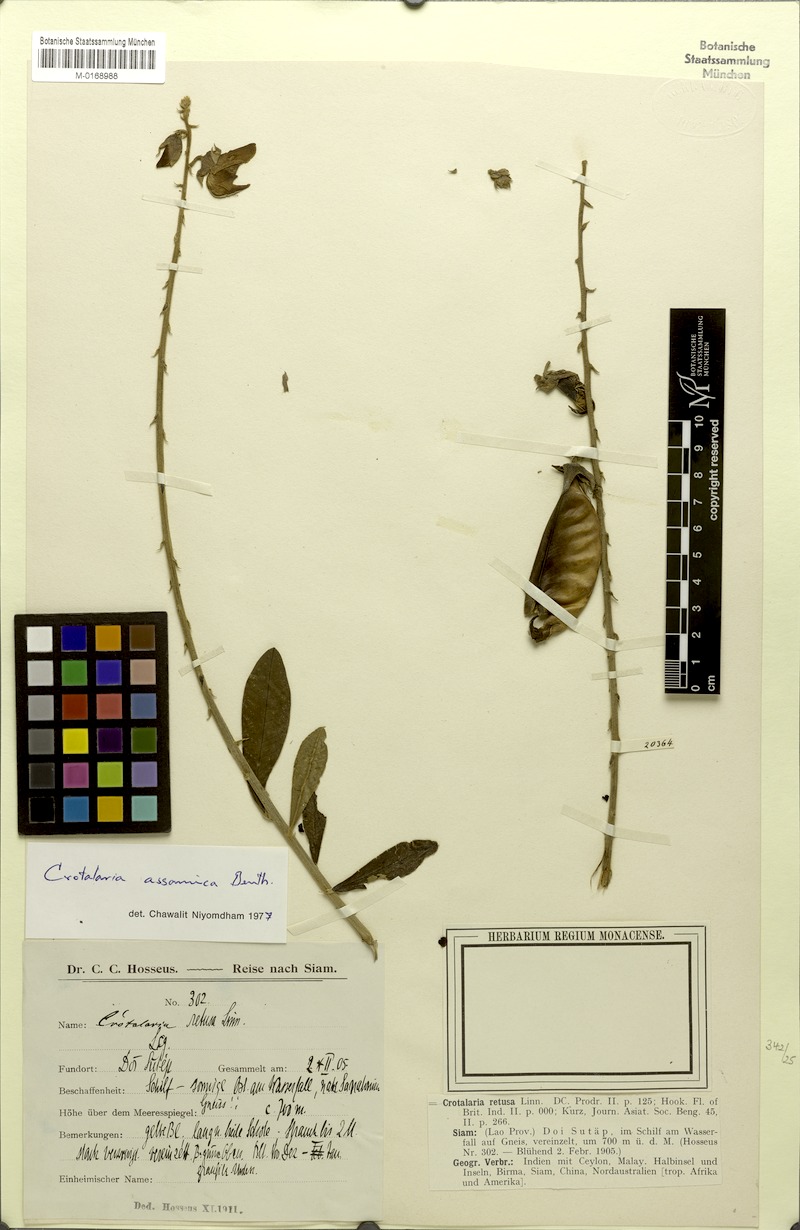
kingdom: Plantae
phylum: Tracheophyta
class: Magnoliopsida
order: Fabales
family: Fabaceae
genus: Crotalaria
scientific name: Crotalaria sericea
